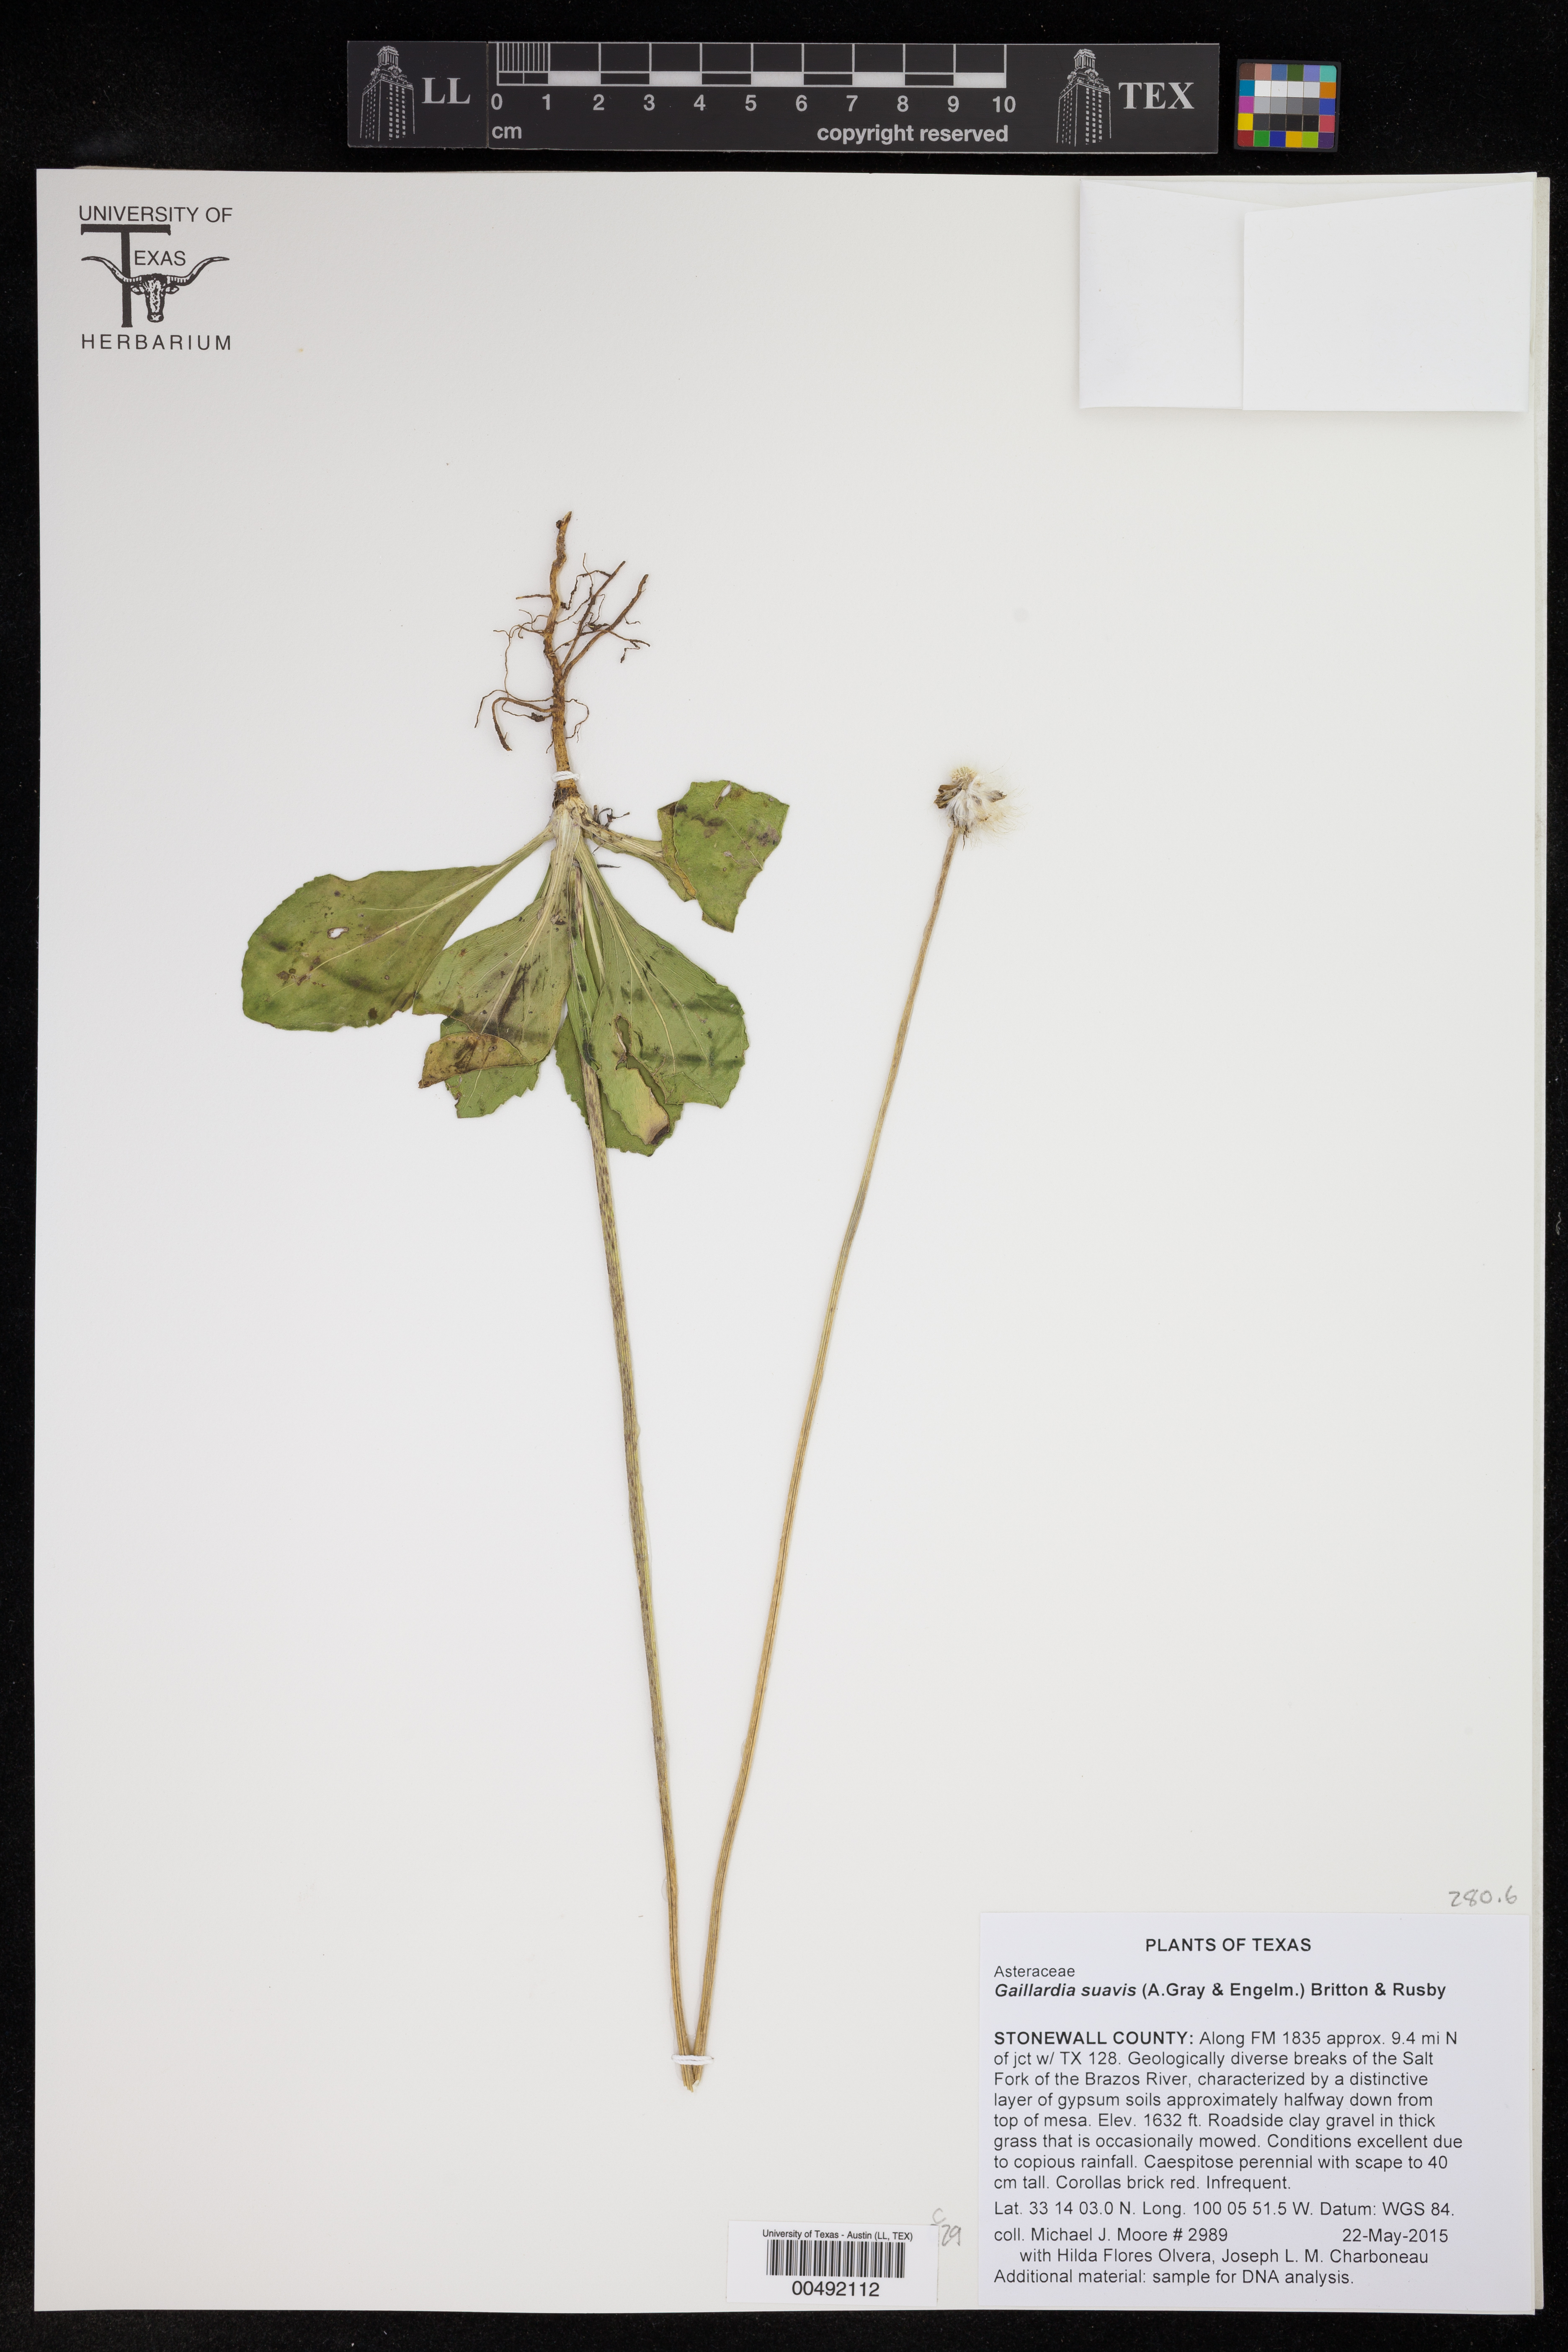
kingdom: Plantae
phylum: Tracheophyta
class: Magnoliopsida
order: Asterales
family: Asteraceae
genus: Gaillardia
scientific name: Gaillardia suavis
